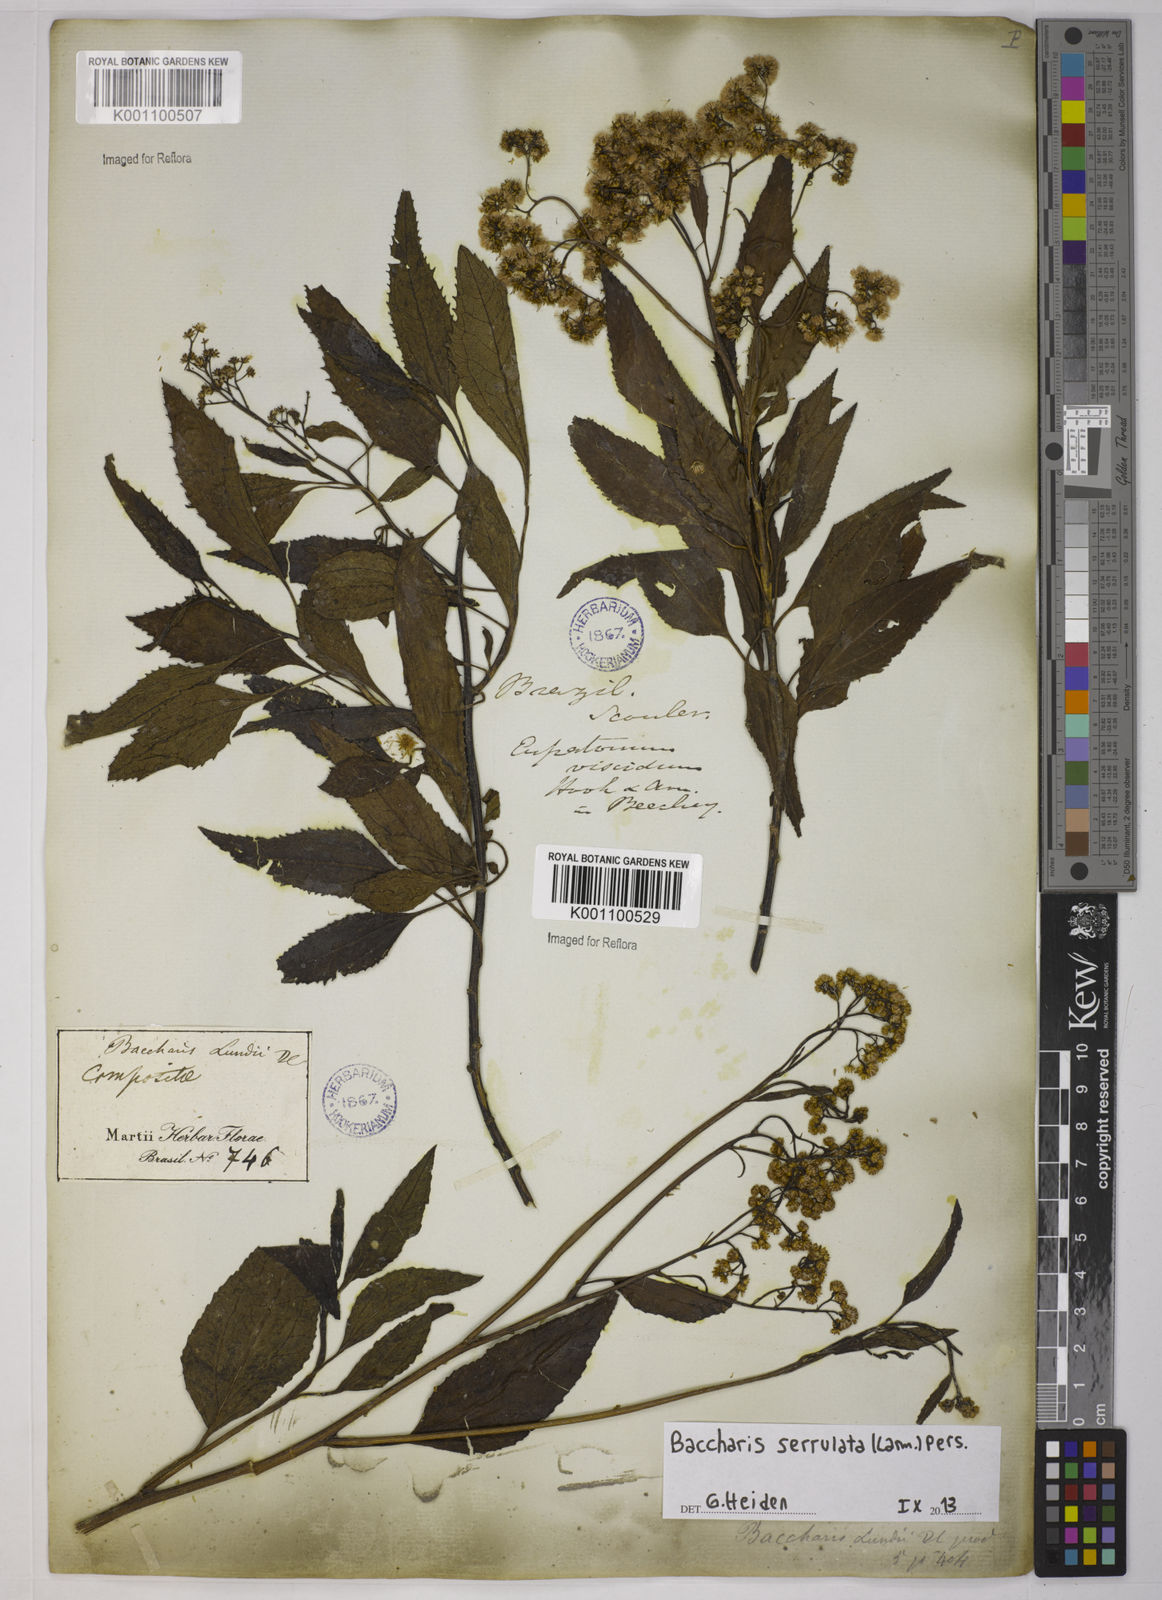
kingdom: Plantae
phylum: Tracheophyta
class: Magnoliopsida
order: Asterales
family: Asteraceae
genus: Baccharis
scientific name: Baccharis serrulata
